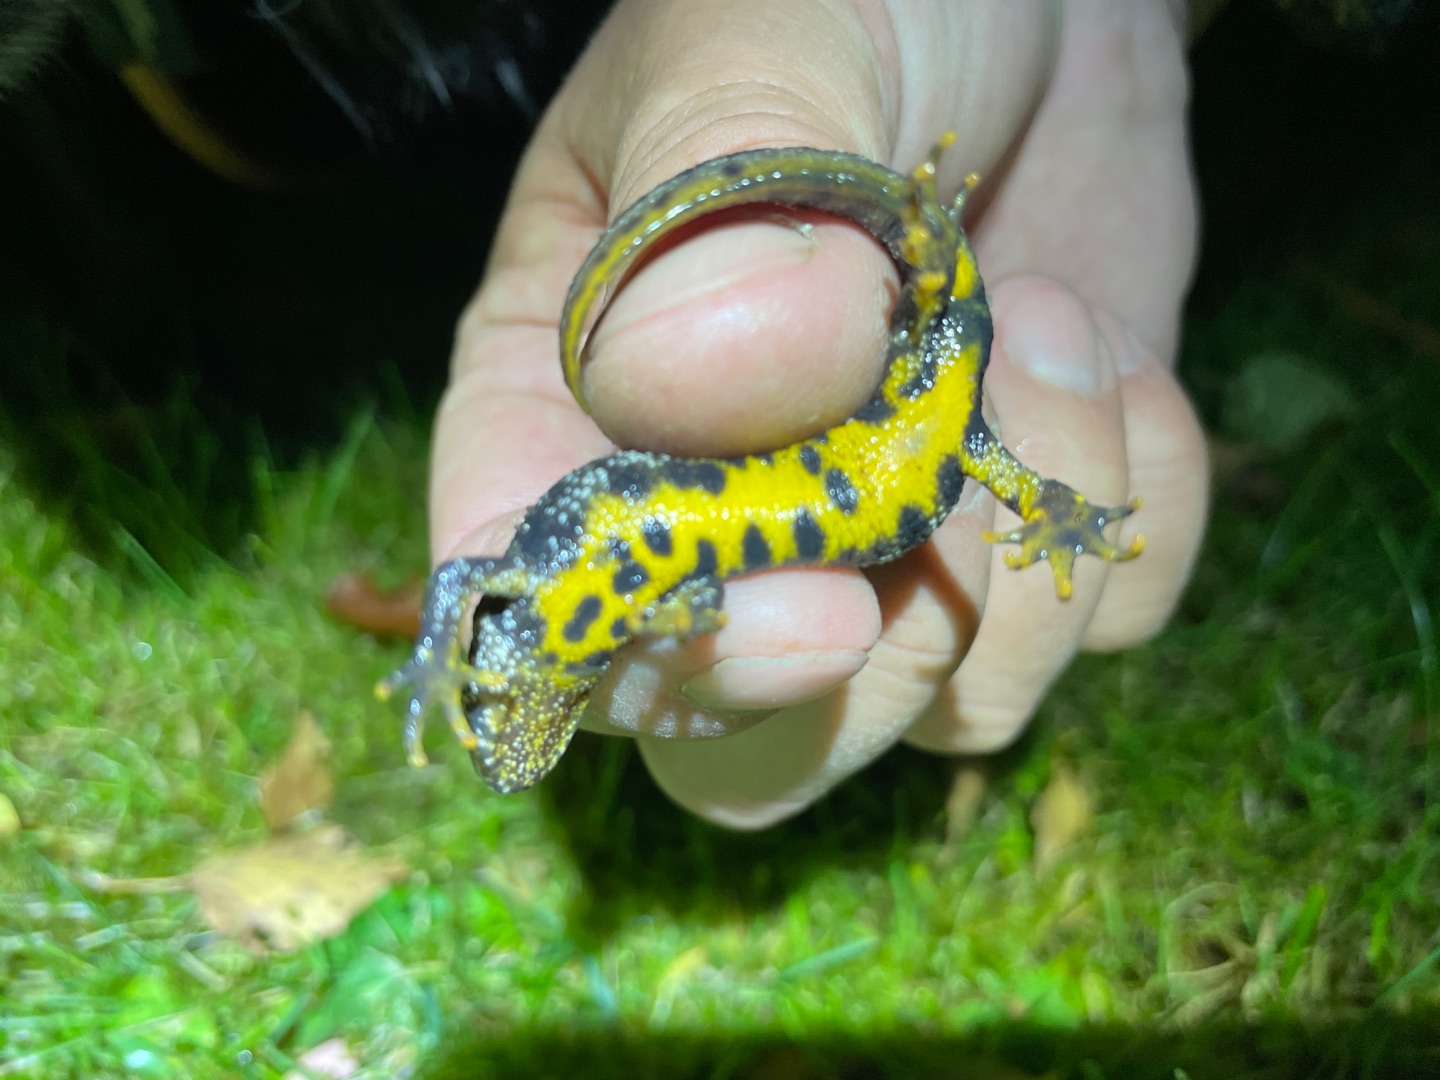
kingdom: Animalia
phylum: Chordata
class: Amphibia
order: Caudata
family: Salamandridae
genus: Triturus
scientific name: Triturus cristatus
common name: Stor vandsalamander
